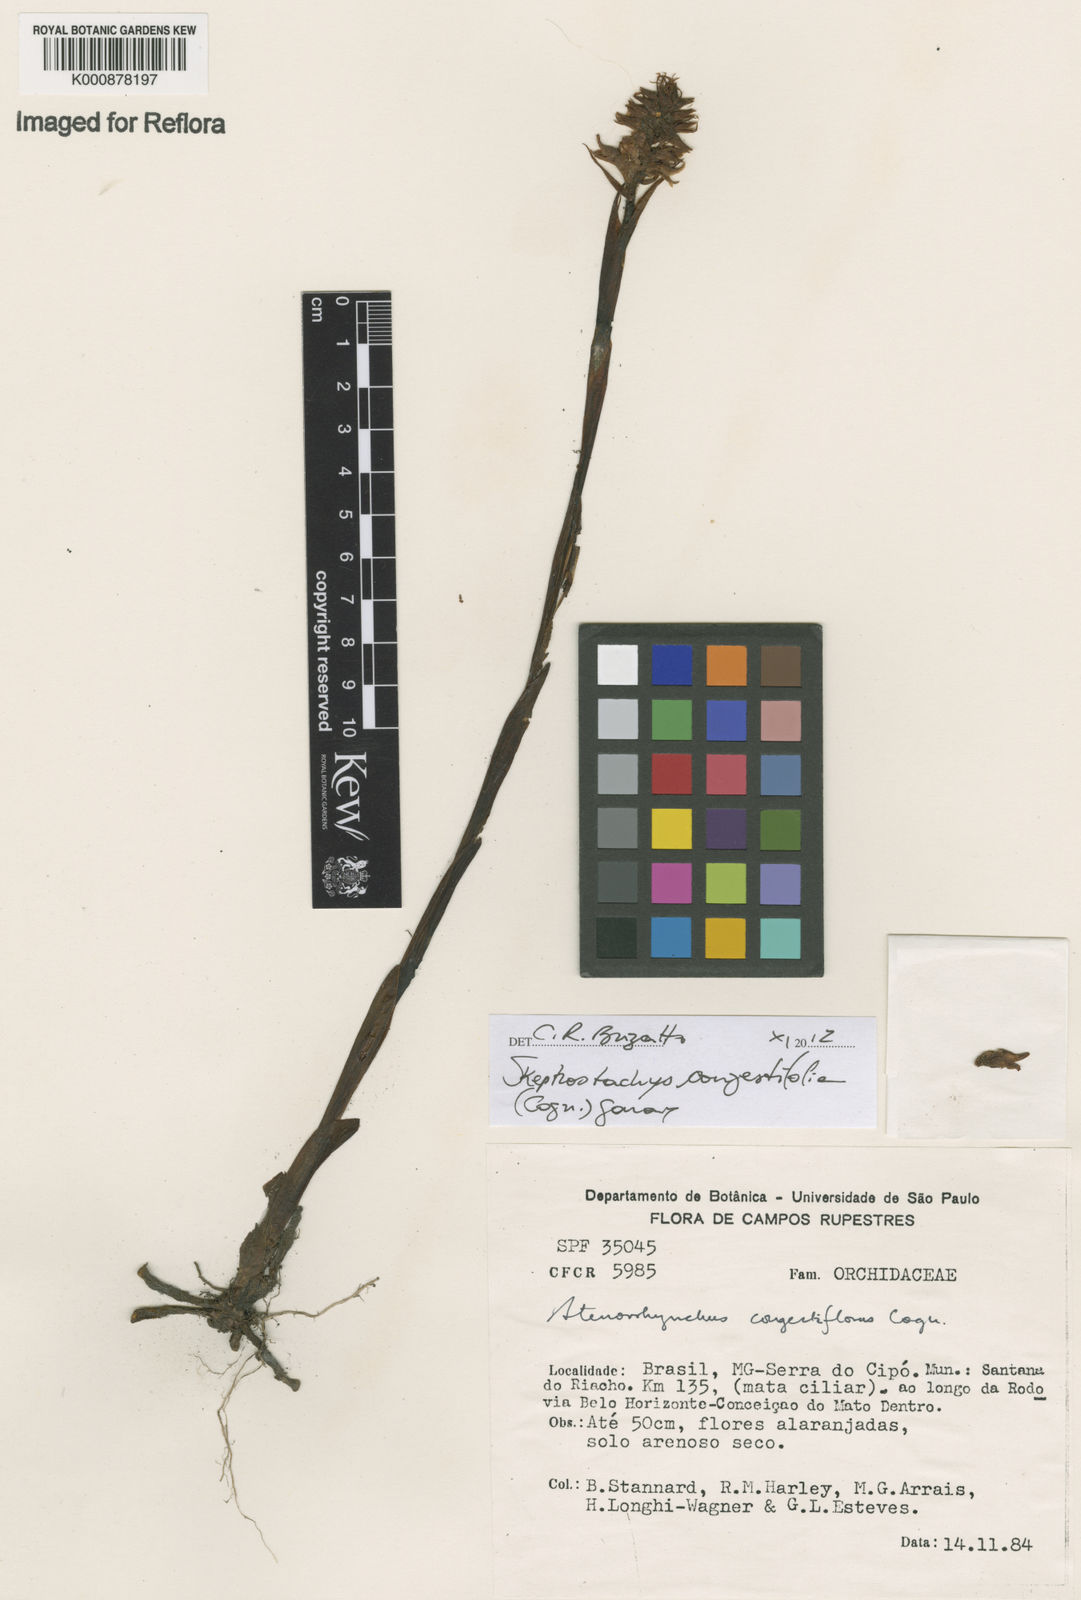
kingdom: Plantae
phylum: Tracheophyta
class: Liliopsida
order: Asparagales
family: Orchidaceae
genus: Skeptrostachys
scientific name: Skeptrostachys congestiflora
